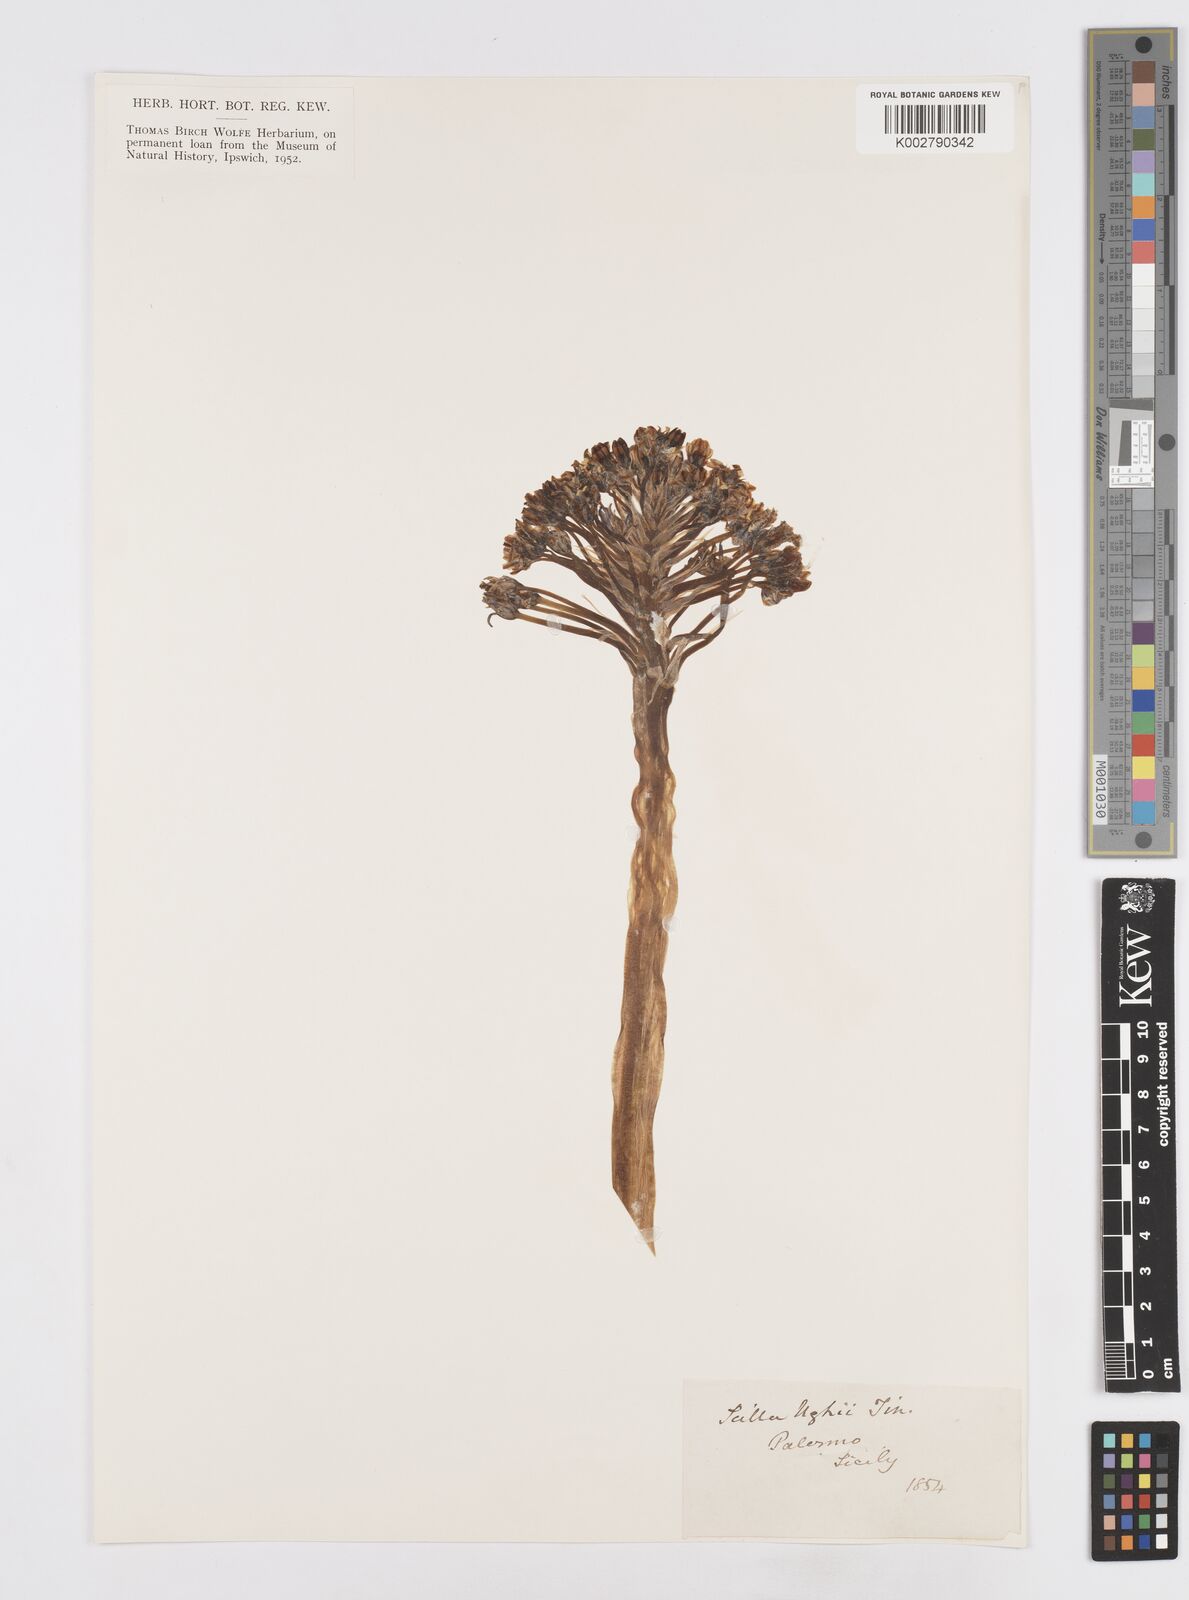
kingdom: Plantae
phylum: Tracheophyta
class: Liliopsida
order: Asparagales
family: Asparagaceae
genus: Scilla
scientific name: Scilla
